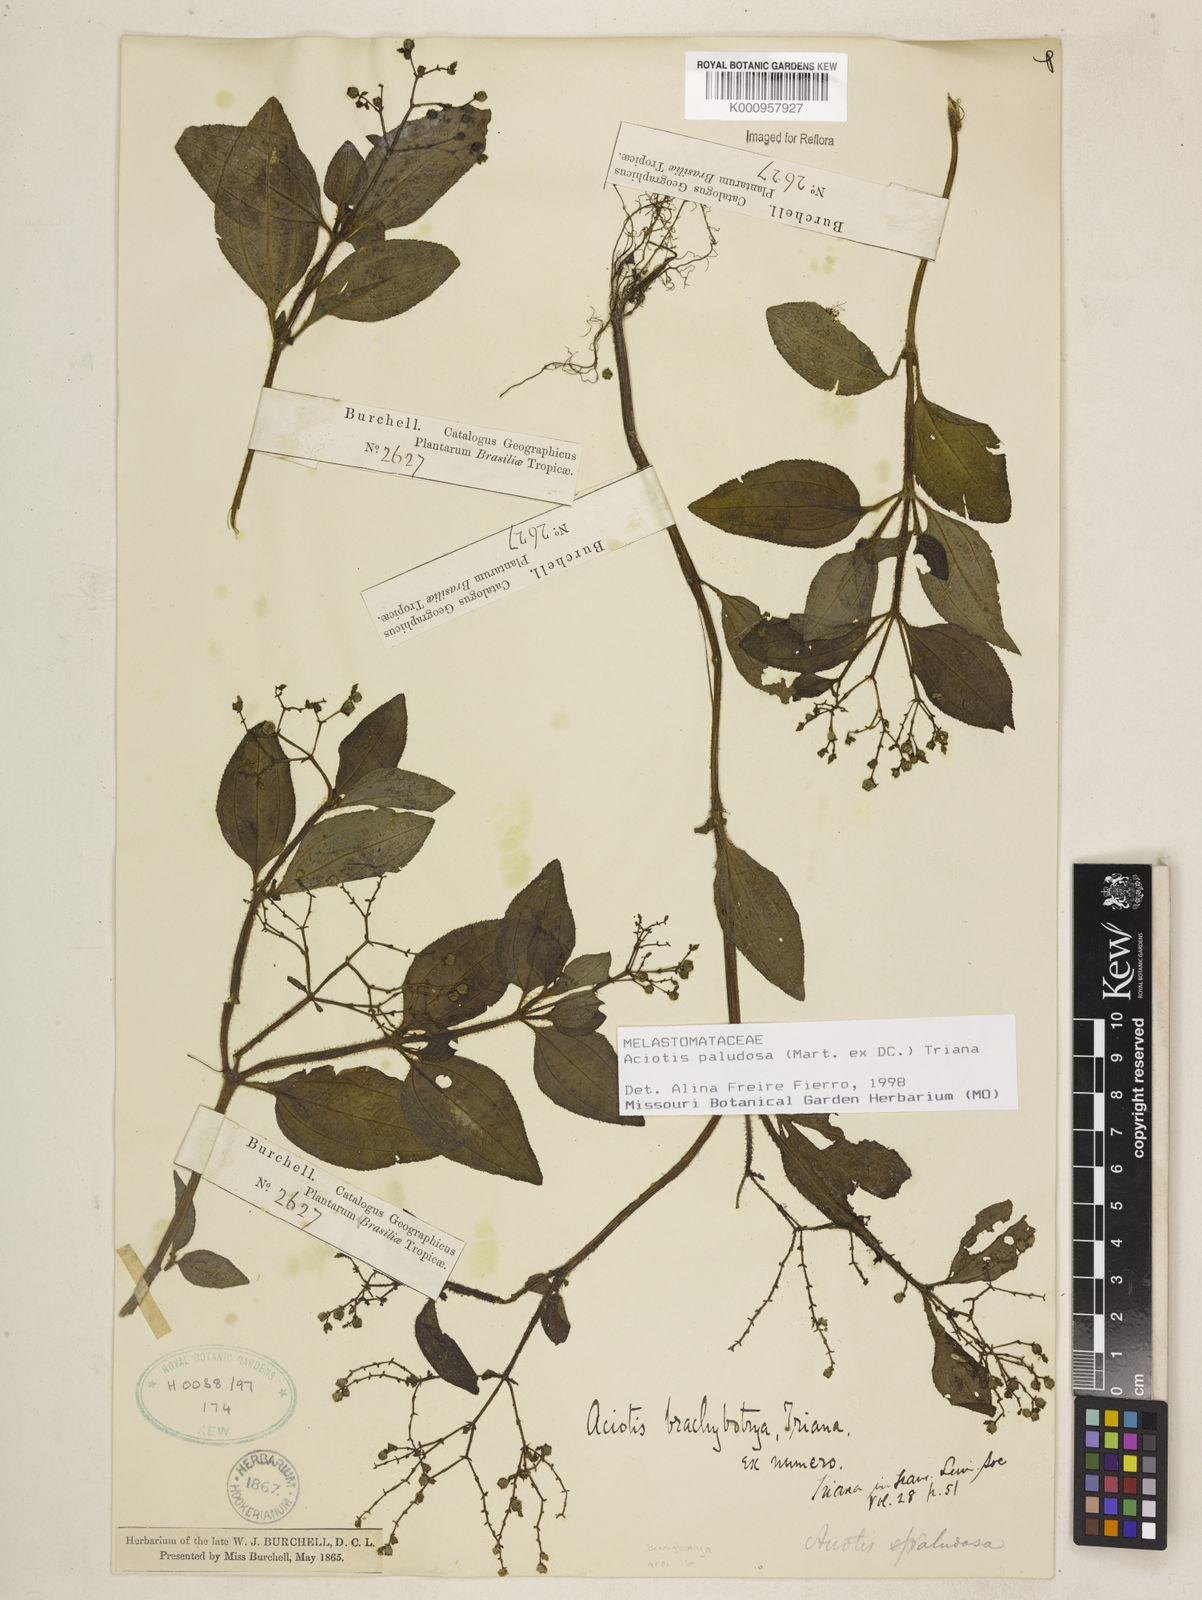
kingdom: Plantae
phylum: Tracheophyta
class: Magnoliopsida
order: Myrtales
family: Melastomataceae
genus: Aciotis
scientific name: Aciotis paludosa
